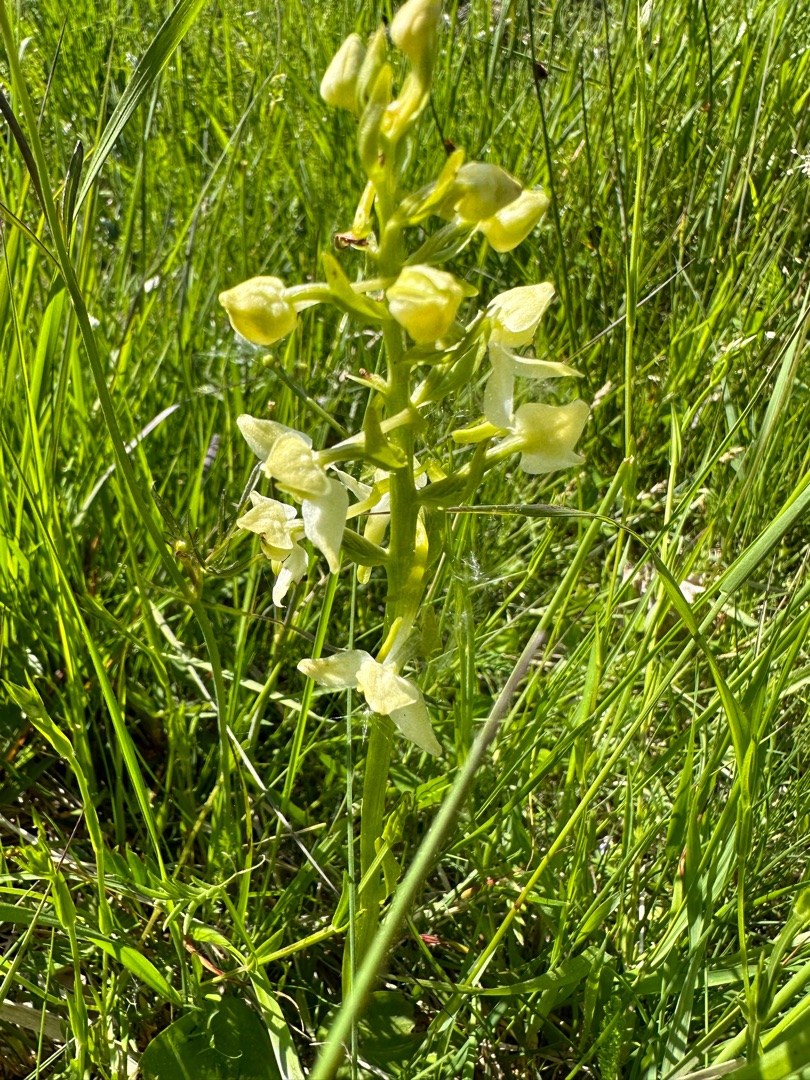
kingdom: Plantae
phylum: Tracheophyta
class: Liliopsida
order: Asparagales
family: Orchidaceae
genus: Platanthera
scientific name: Platanthera chlorantha
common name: Skov-gøgelilje
